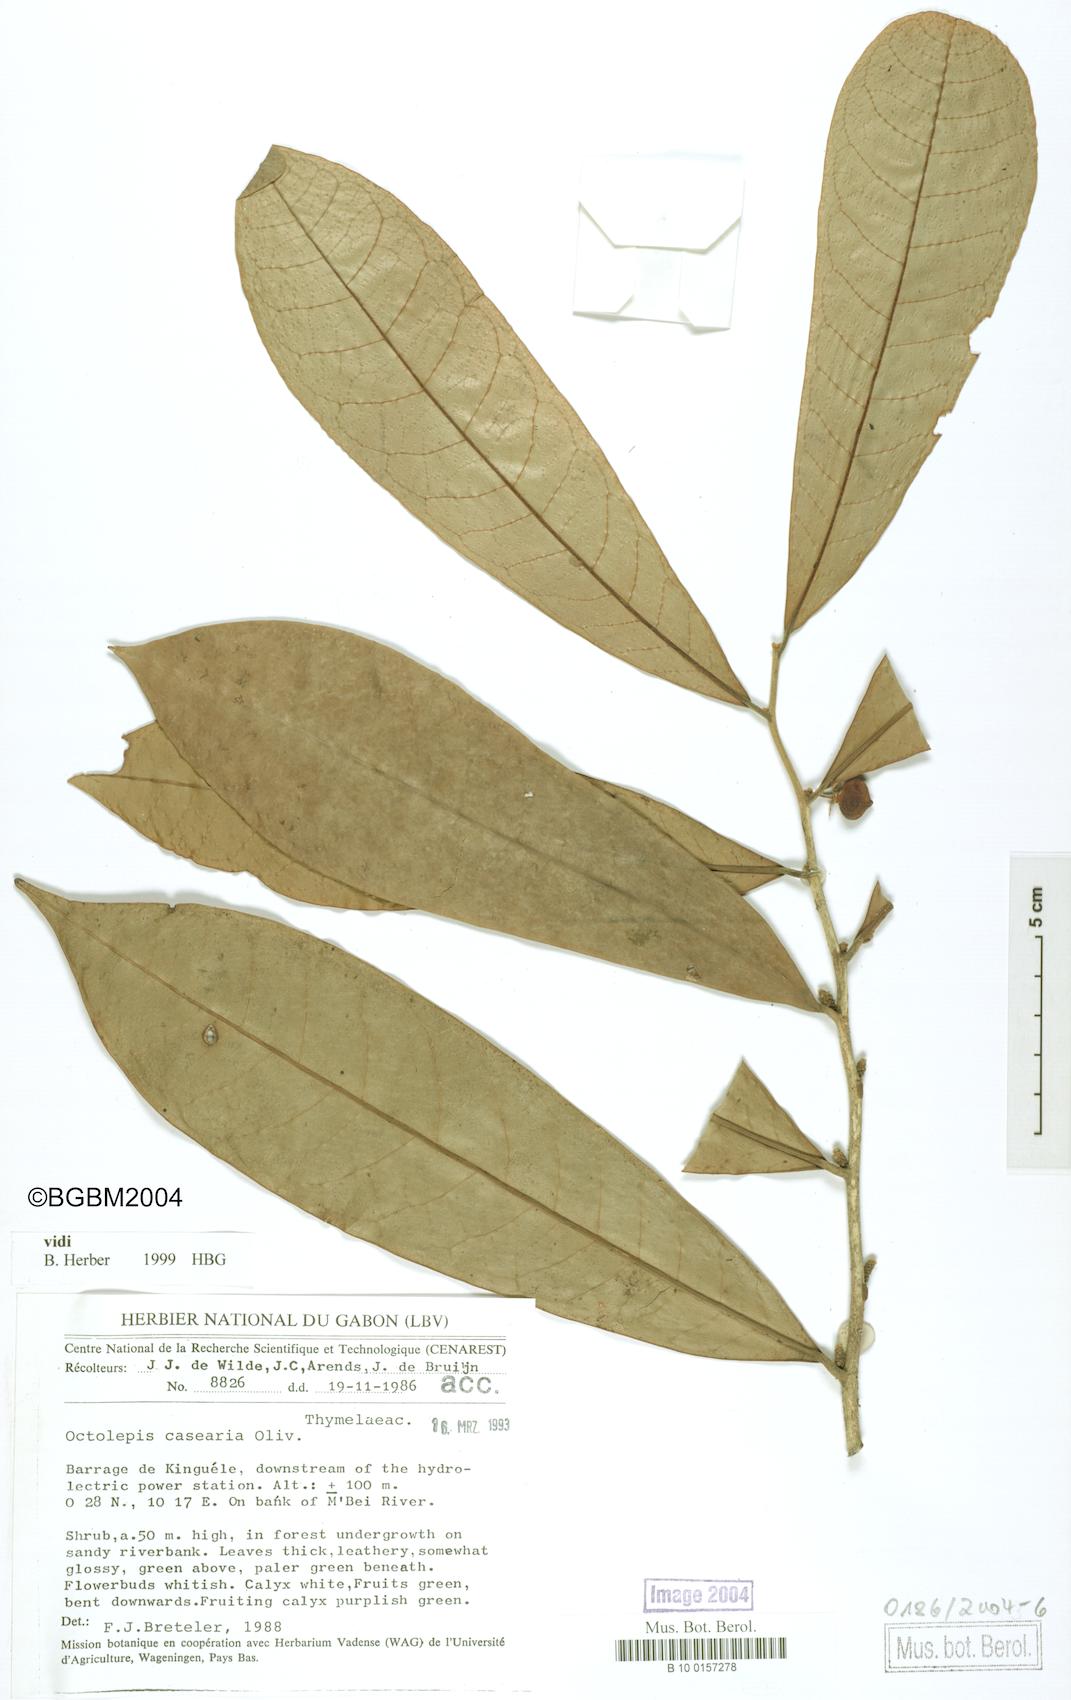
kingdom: Plantae
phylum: Tracheophyta
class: Magnoliopsida
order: Malvales
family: Thymelaeaceae
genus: Octolepis
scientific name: Octolepis casearia
